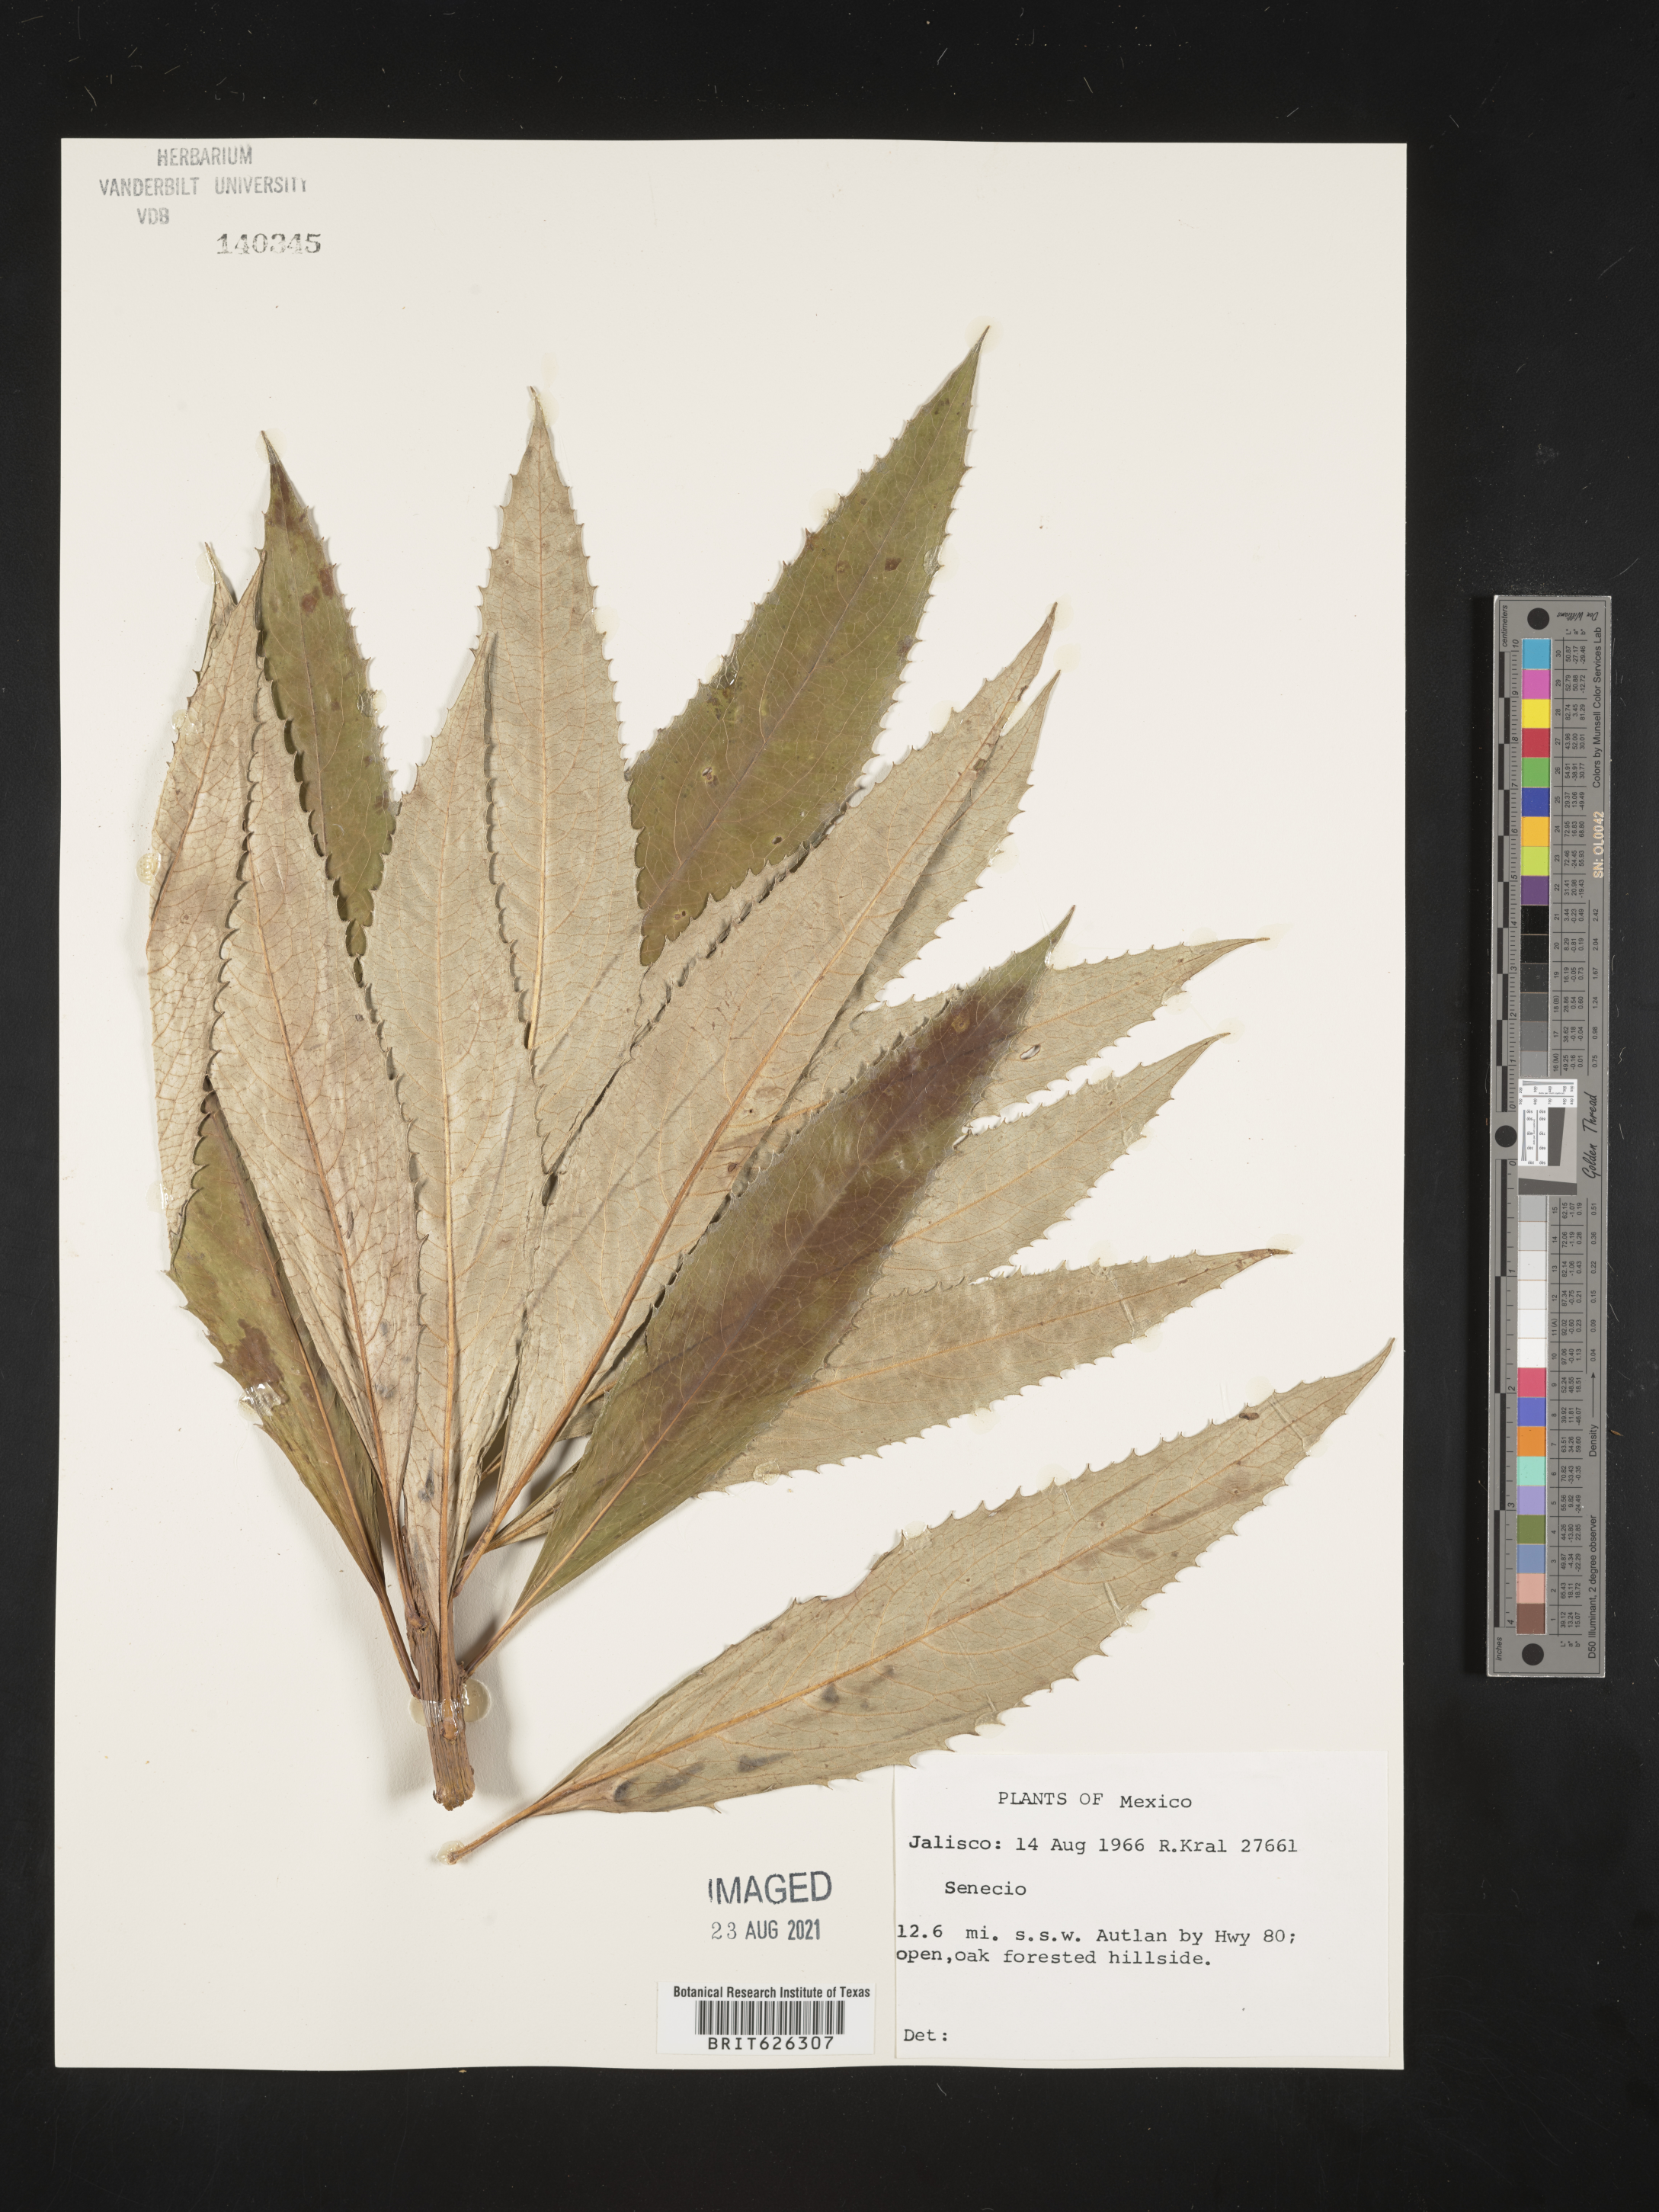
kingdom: Plantae
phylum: Tracheophyta
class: Magnoliopsida
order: Asterales
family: Asteraceae
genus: Senecio
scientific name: Senecio
